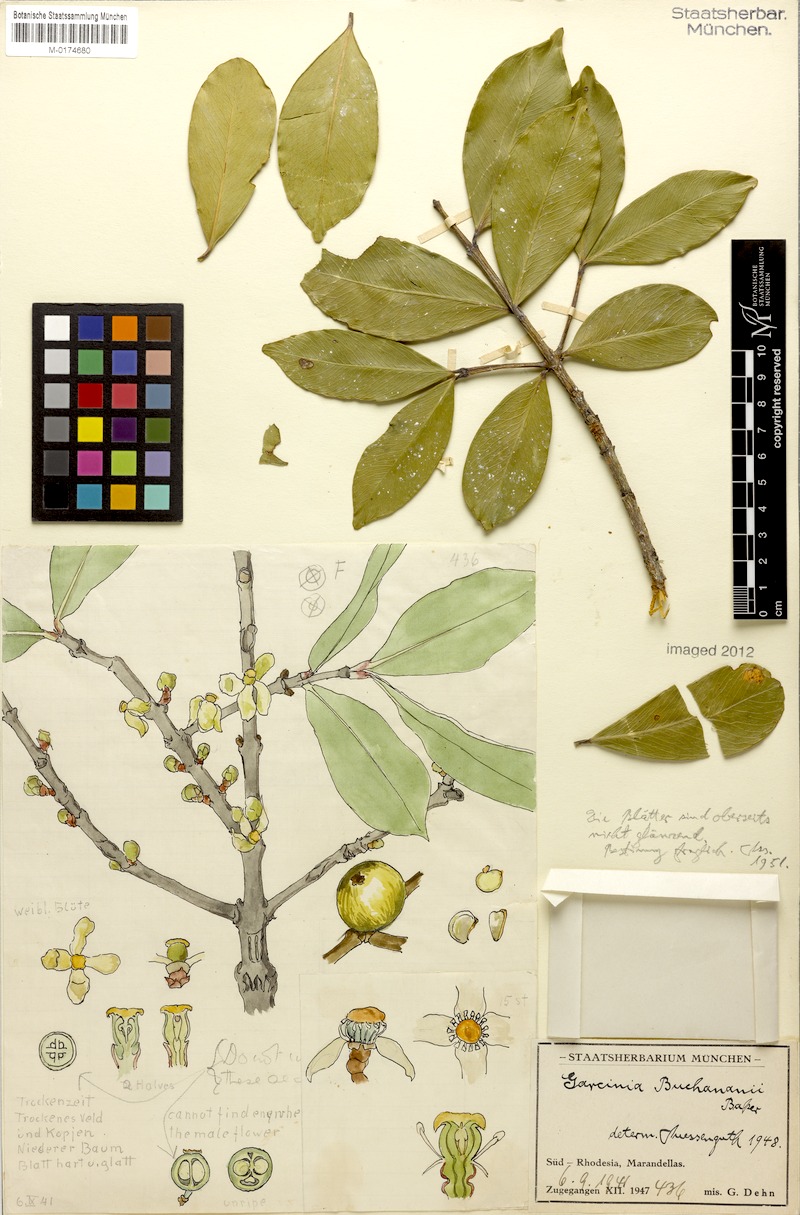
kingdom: Plantae
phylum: Tracheophyta
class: Magnoliopsida
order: Malpighiales
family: Clusiaceae
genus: Garcinia
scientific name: Garcinia buchananii
